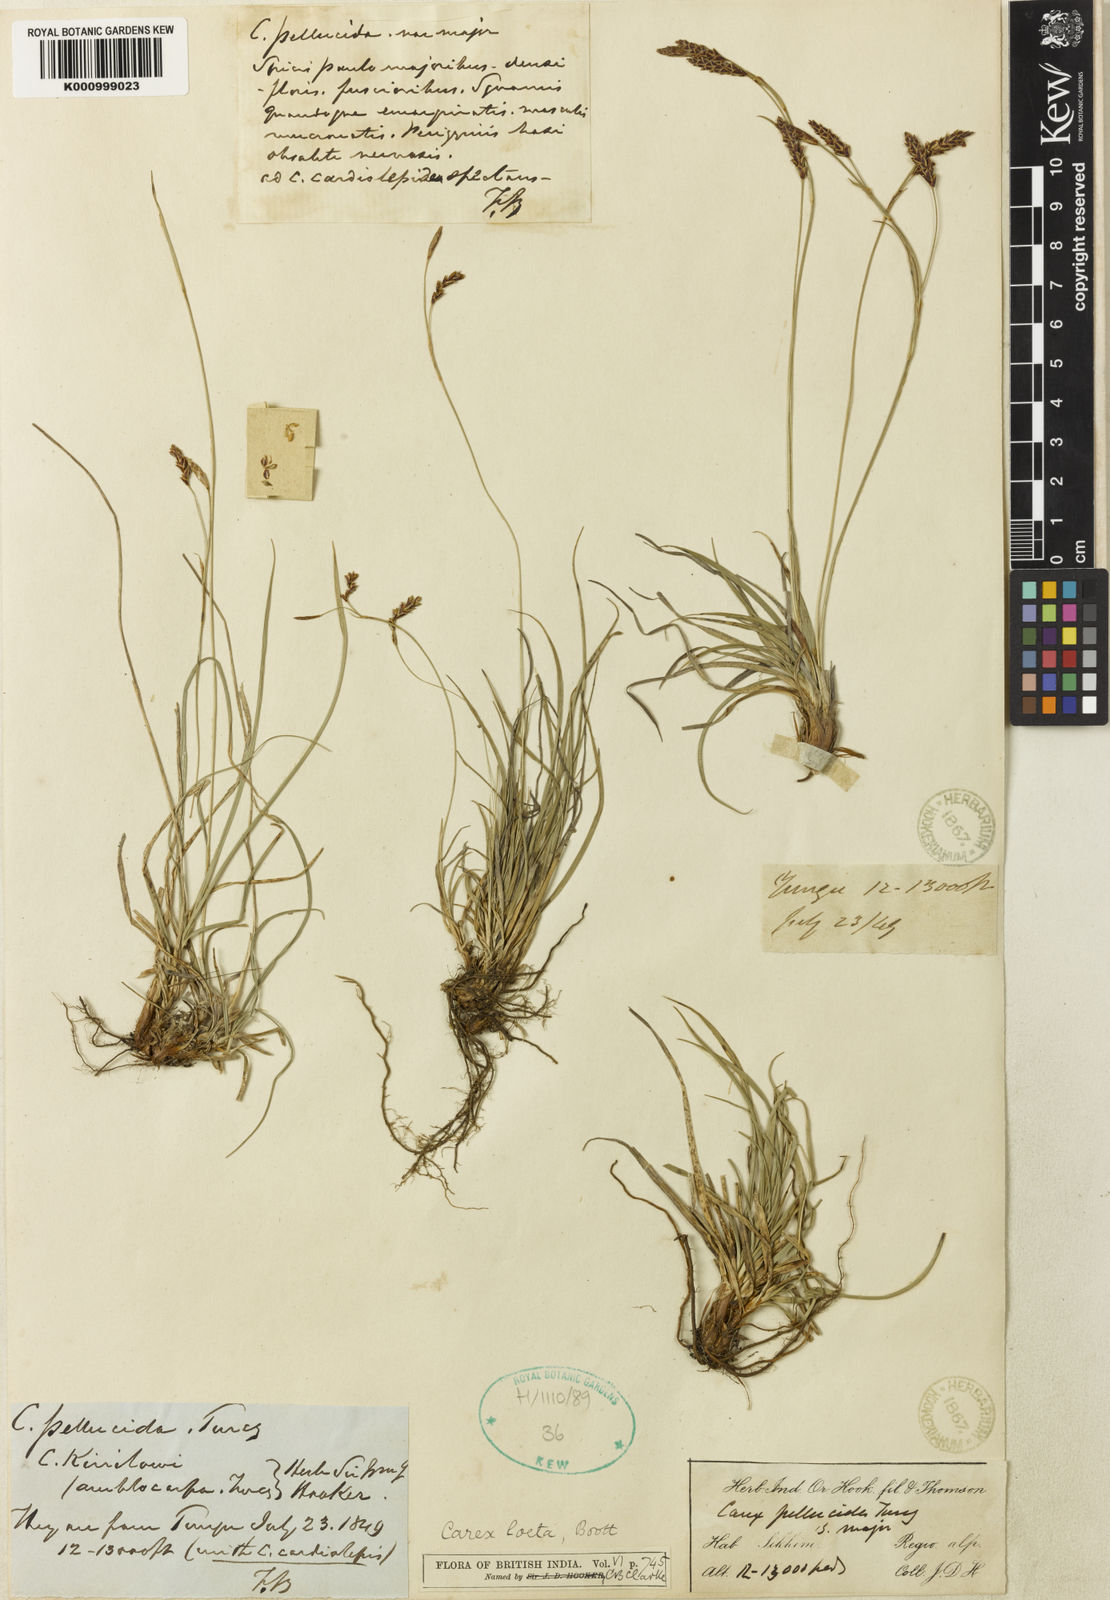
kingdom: Plantae
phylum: Tracheophyta
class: Liliopsida
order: Poales
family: Cyperaceae
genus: Carex
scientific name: Carex laeta
